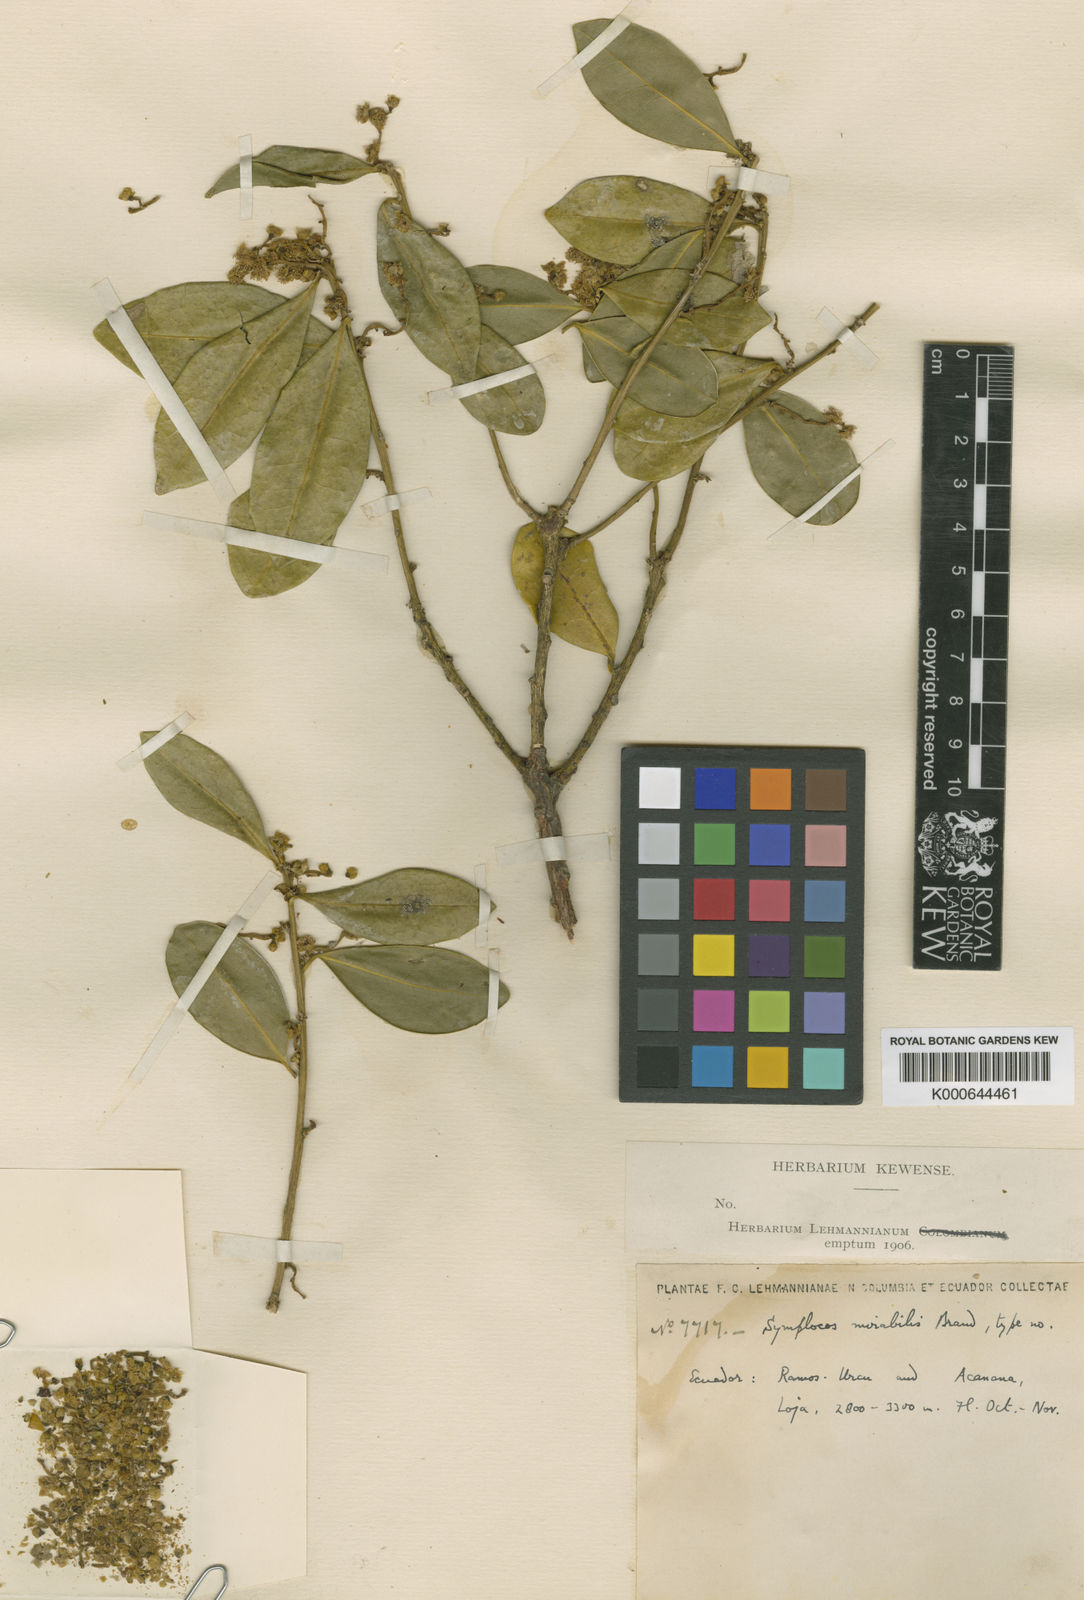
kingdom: Plantae
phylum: Tracheophyta
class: Magnoliopsida
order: Ericales
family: Symplocaceae
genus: Symplocos
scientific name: Symplocos bogotensis
